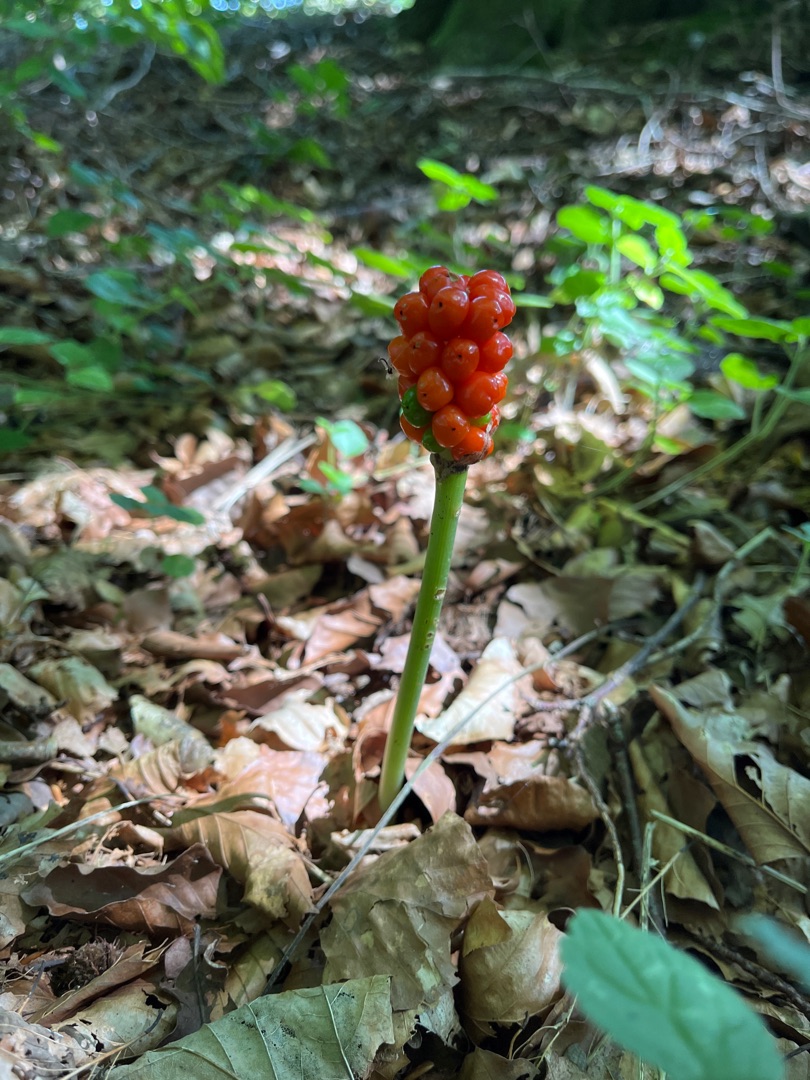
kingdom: Plantae
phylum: Tracheophyta
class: Liliopsida
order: Alismatales
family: Araceae
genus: Arum
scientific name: Arum
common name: Arumslægten
